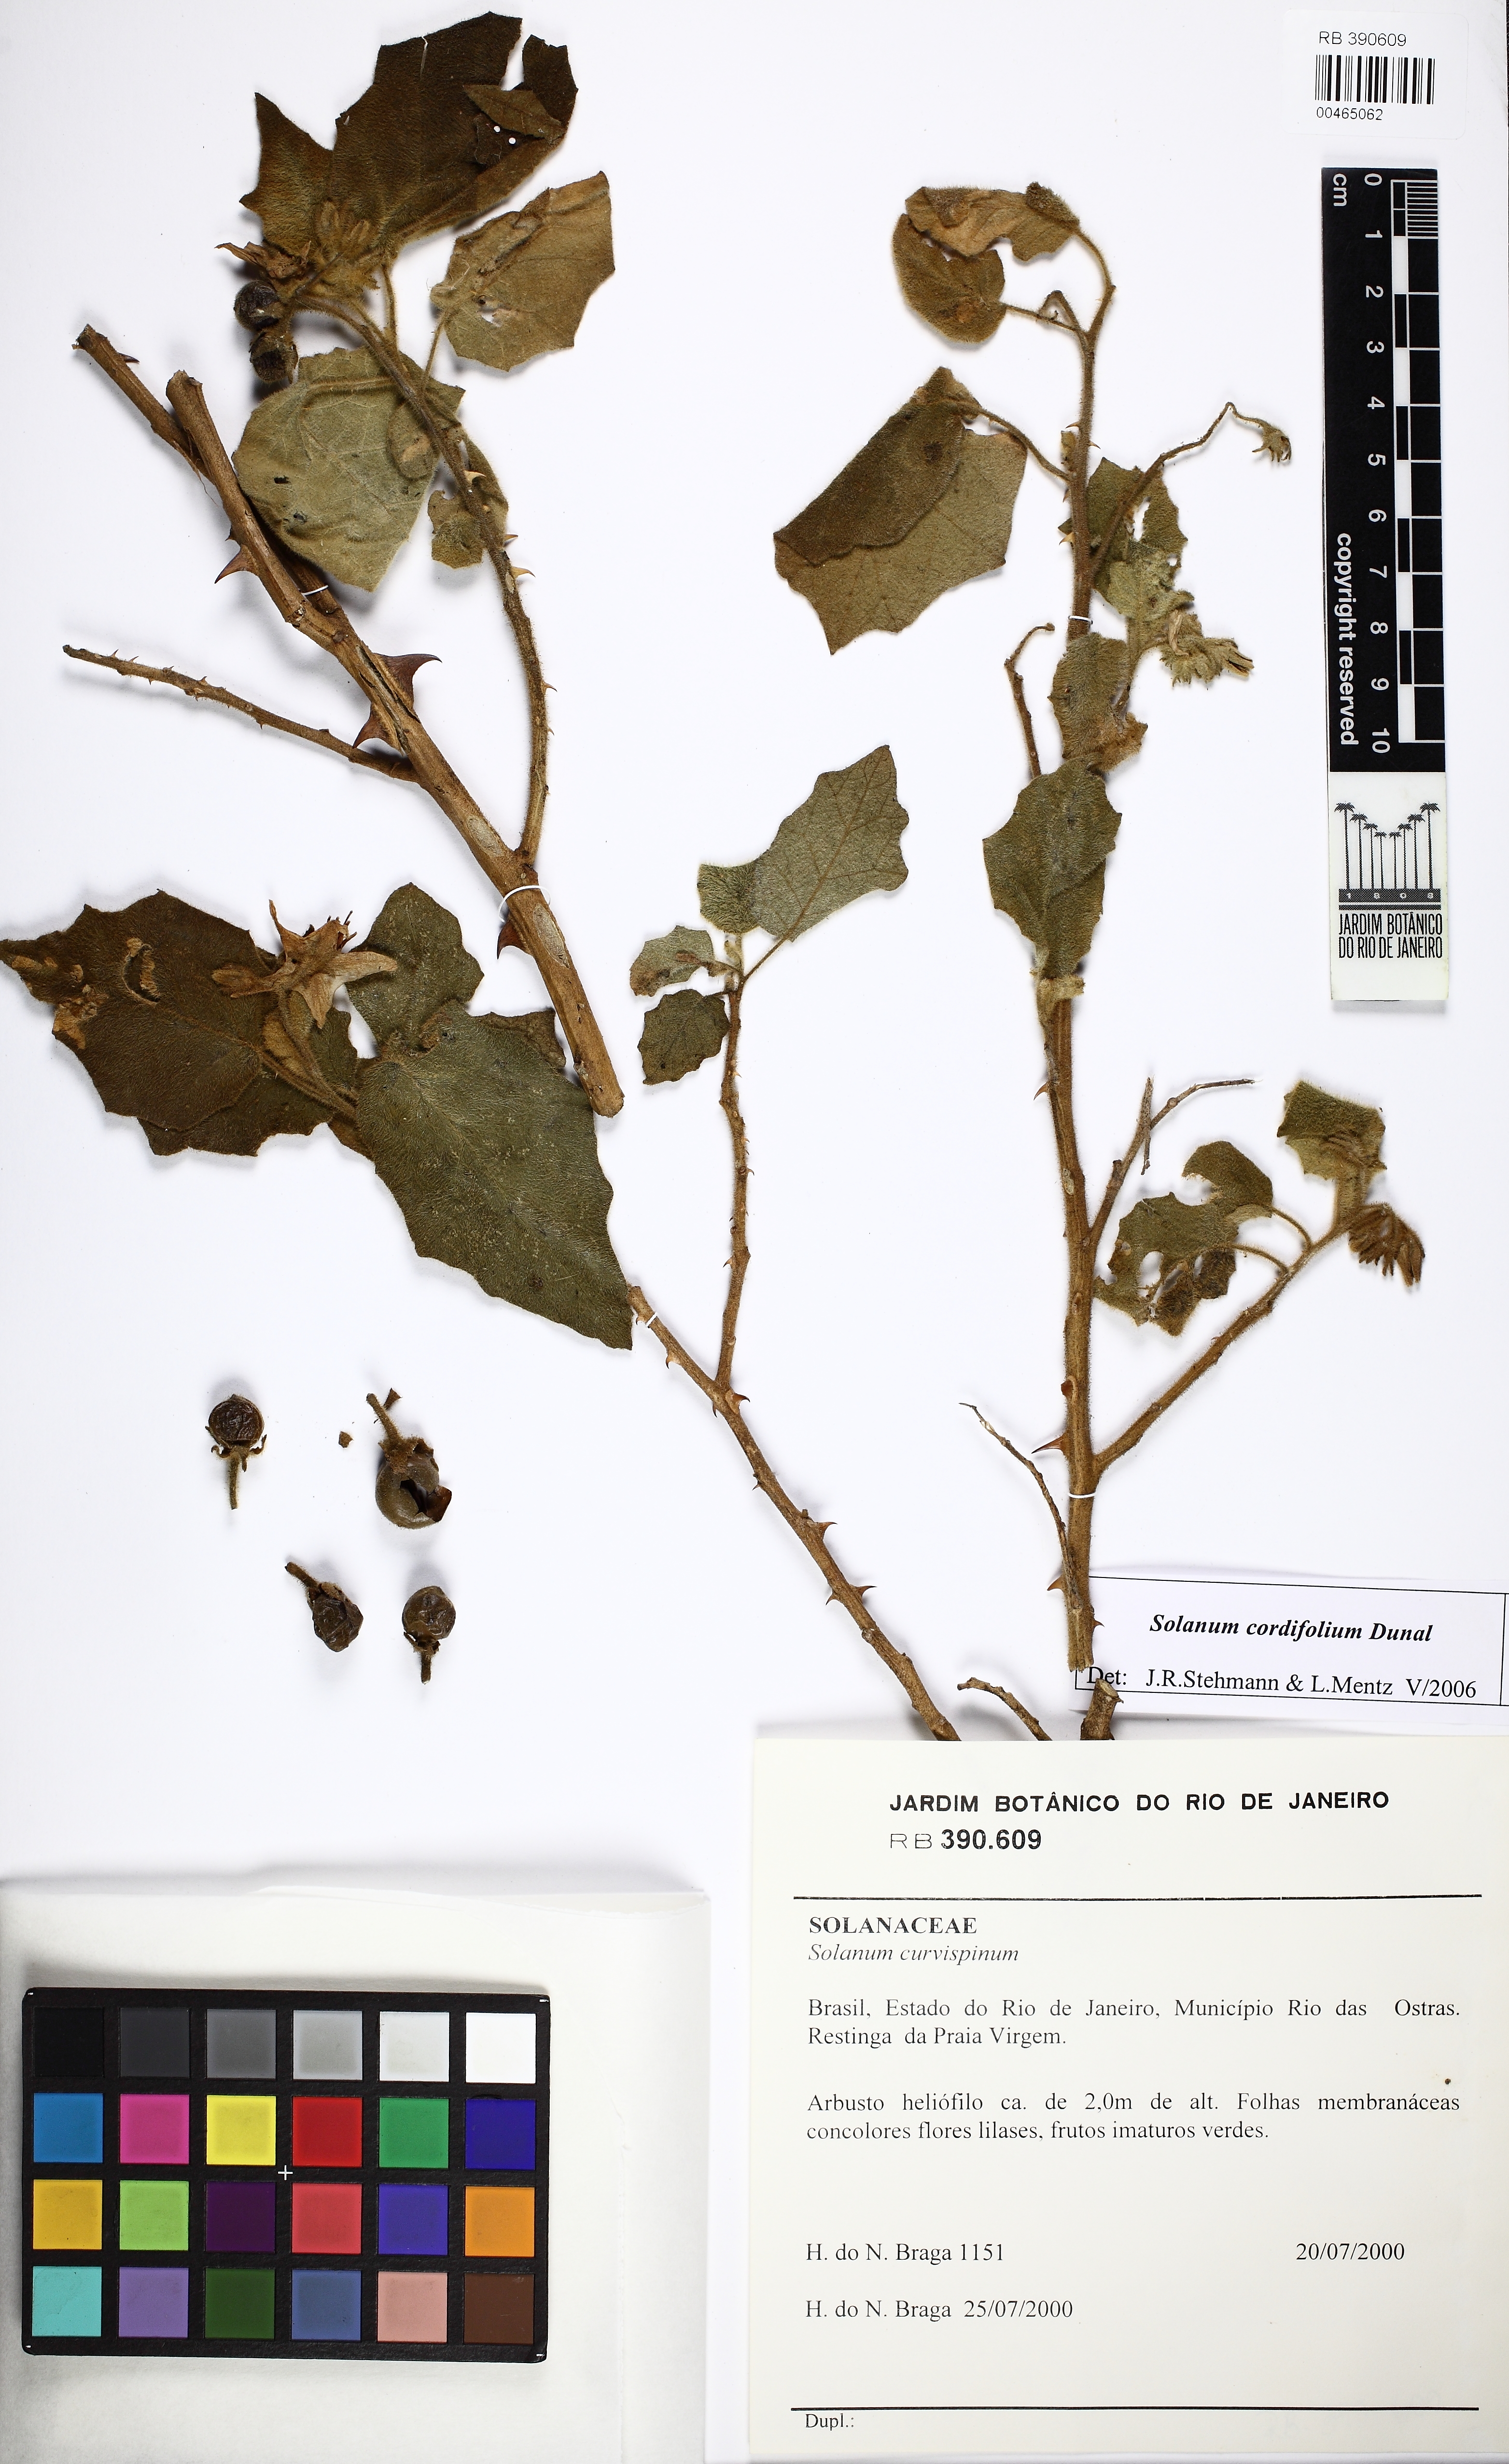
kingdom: Plantae
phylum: Tracheophyta
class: Magnoliopsida
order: Solanales
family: Solanaceae
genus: Solanum
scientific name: Solanum cordifolium
